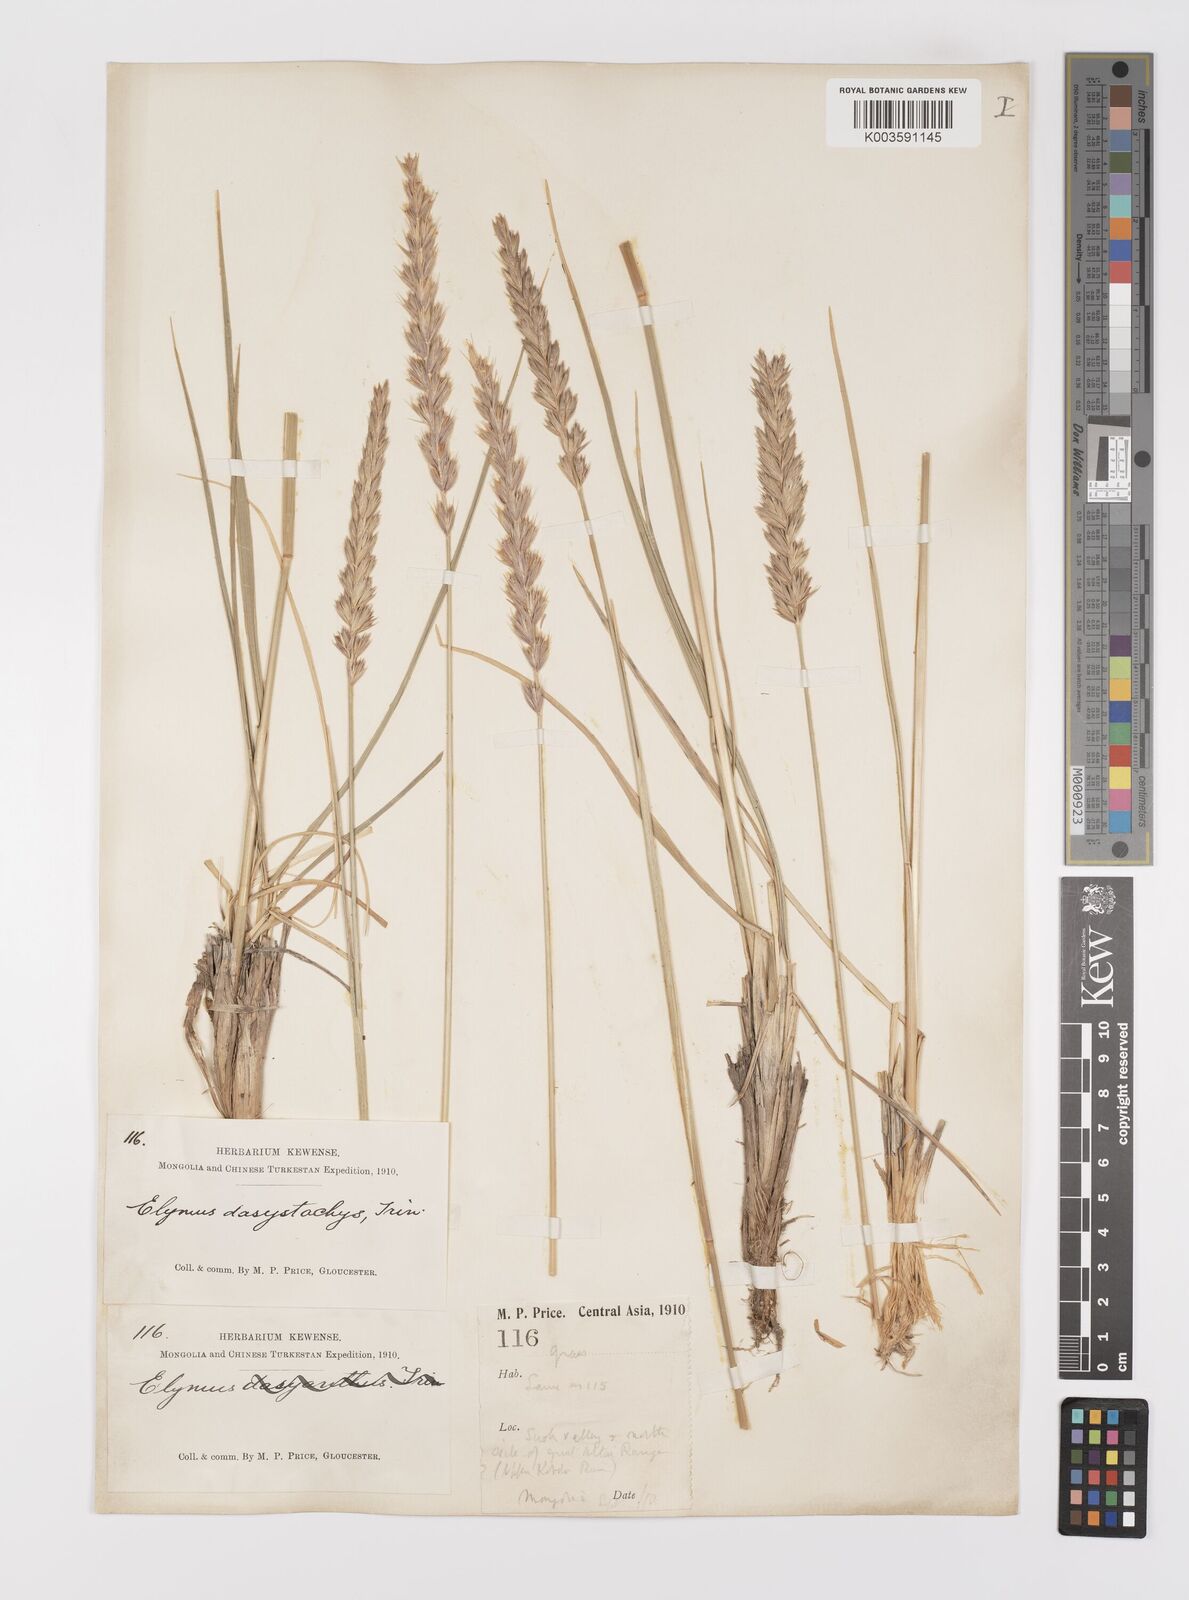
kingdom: Plantae
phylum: Tracheophyta
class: Liliopsida
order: Poales
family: Poaceae
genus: Leymus
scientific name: Leymus secalinus
